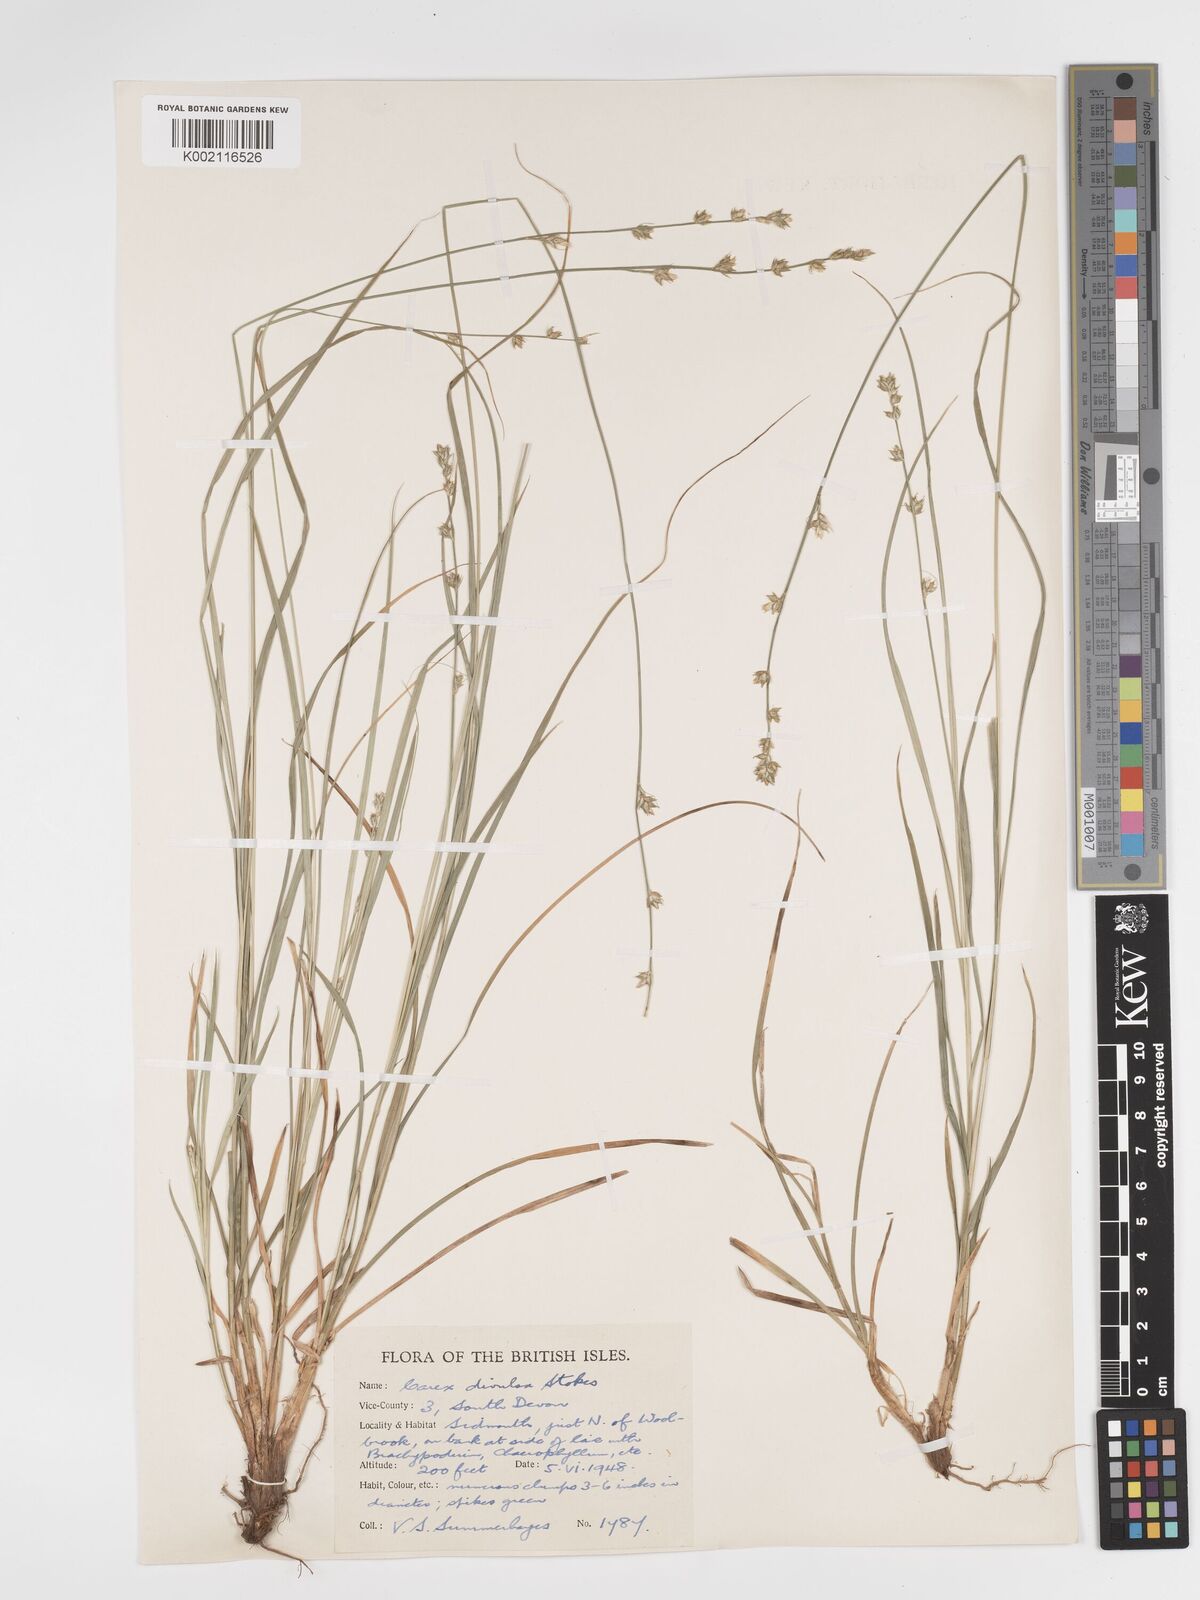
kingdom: Plantae
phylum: Tracheophyta
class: Liliopsida
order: Poales
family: Cyperaceae
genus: Carex
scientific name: Carex divulsa
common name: Grassland sedge
